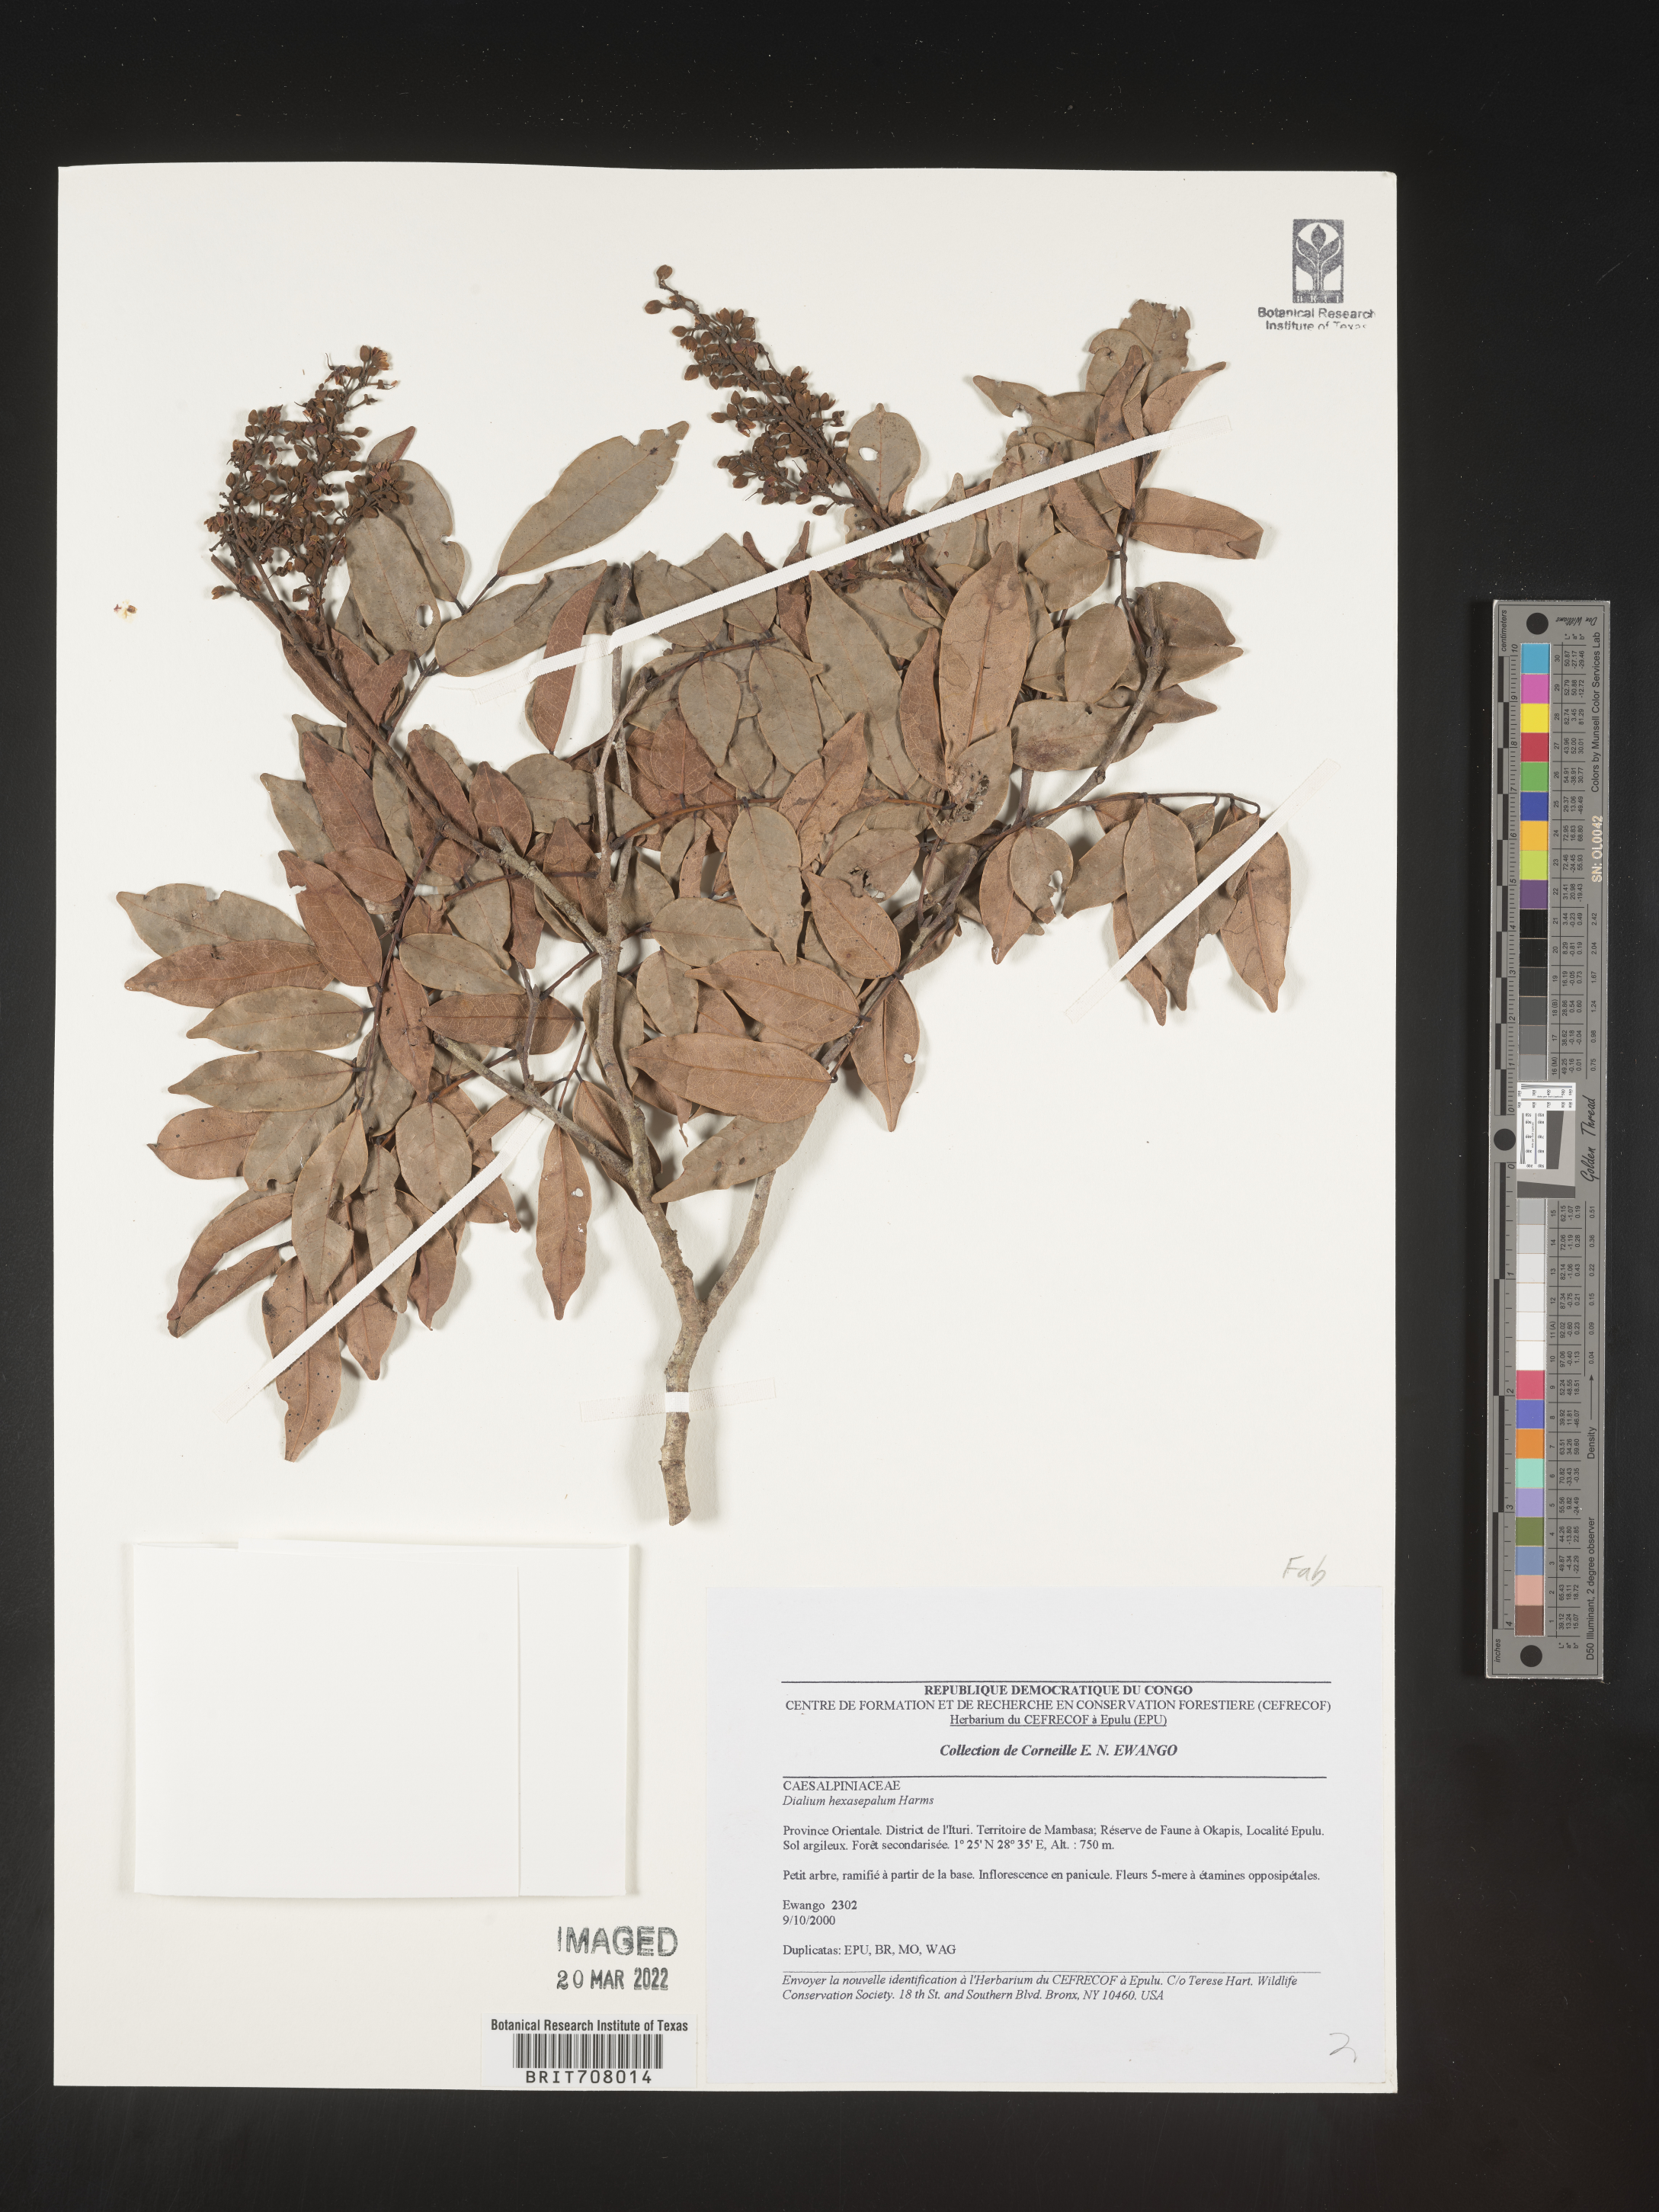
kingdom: Plantae
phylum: Tracheophyta
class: Magnoliopsida
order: Fabales
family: Fabaceae
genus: Dialium
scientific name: Dialium
